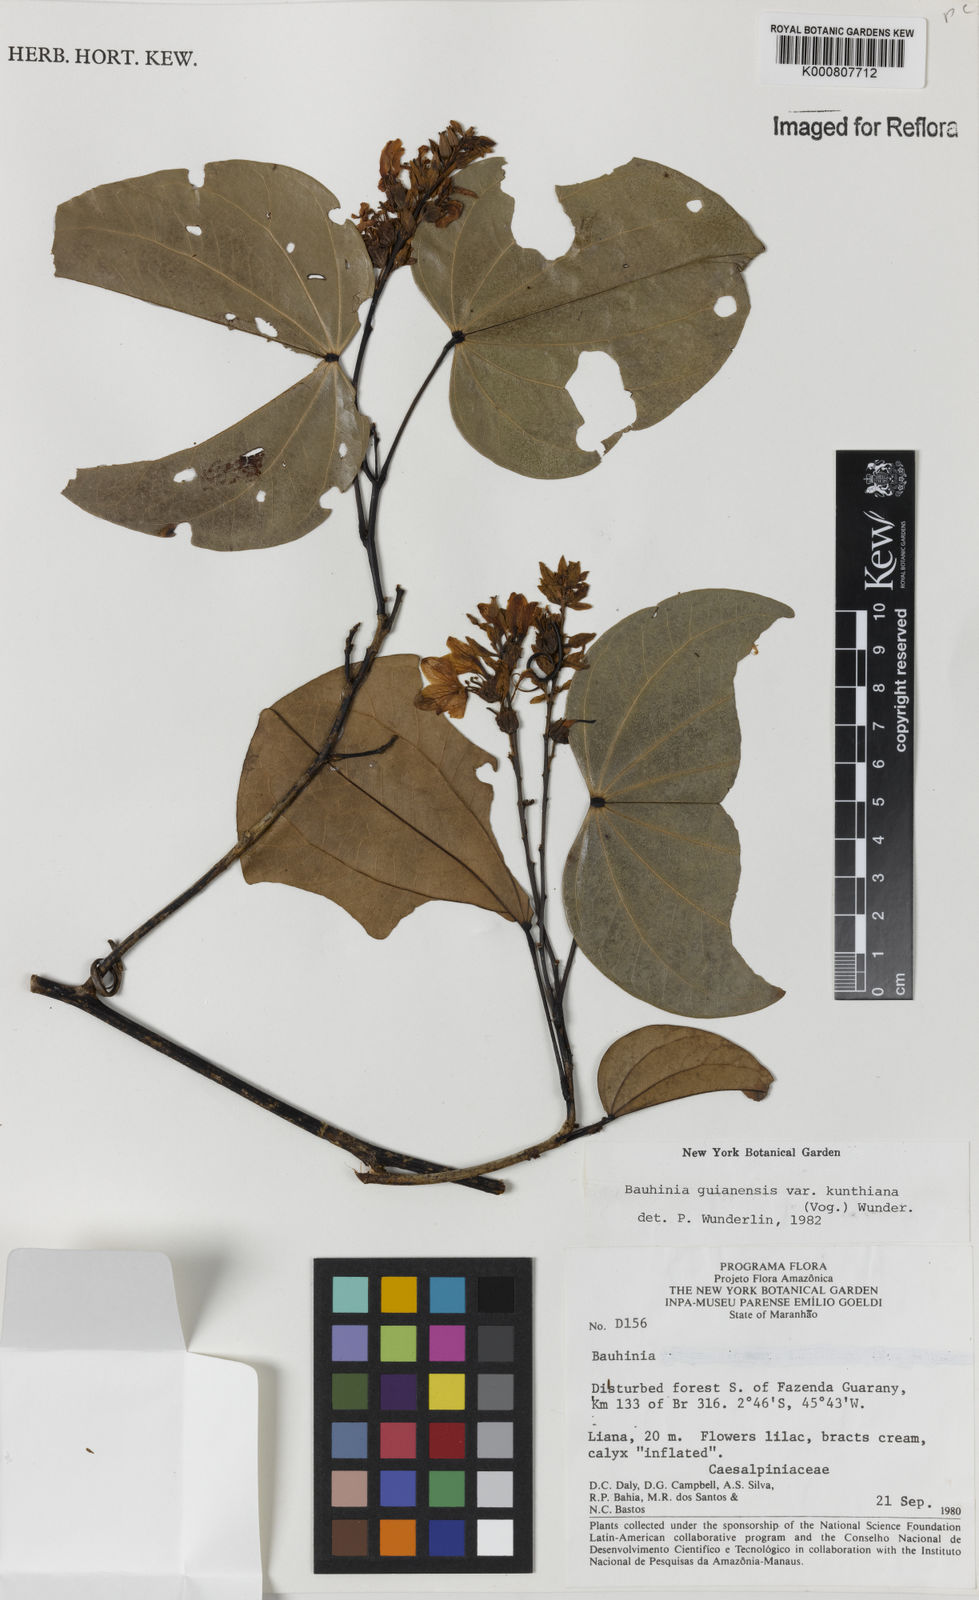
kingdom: Plantae
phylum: Tracheophyta
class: Magnoliopsida
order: Fabales
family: Fabaceae
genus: Schnella
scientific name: Schnella kunthiana
